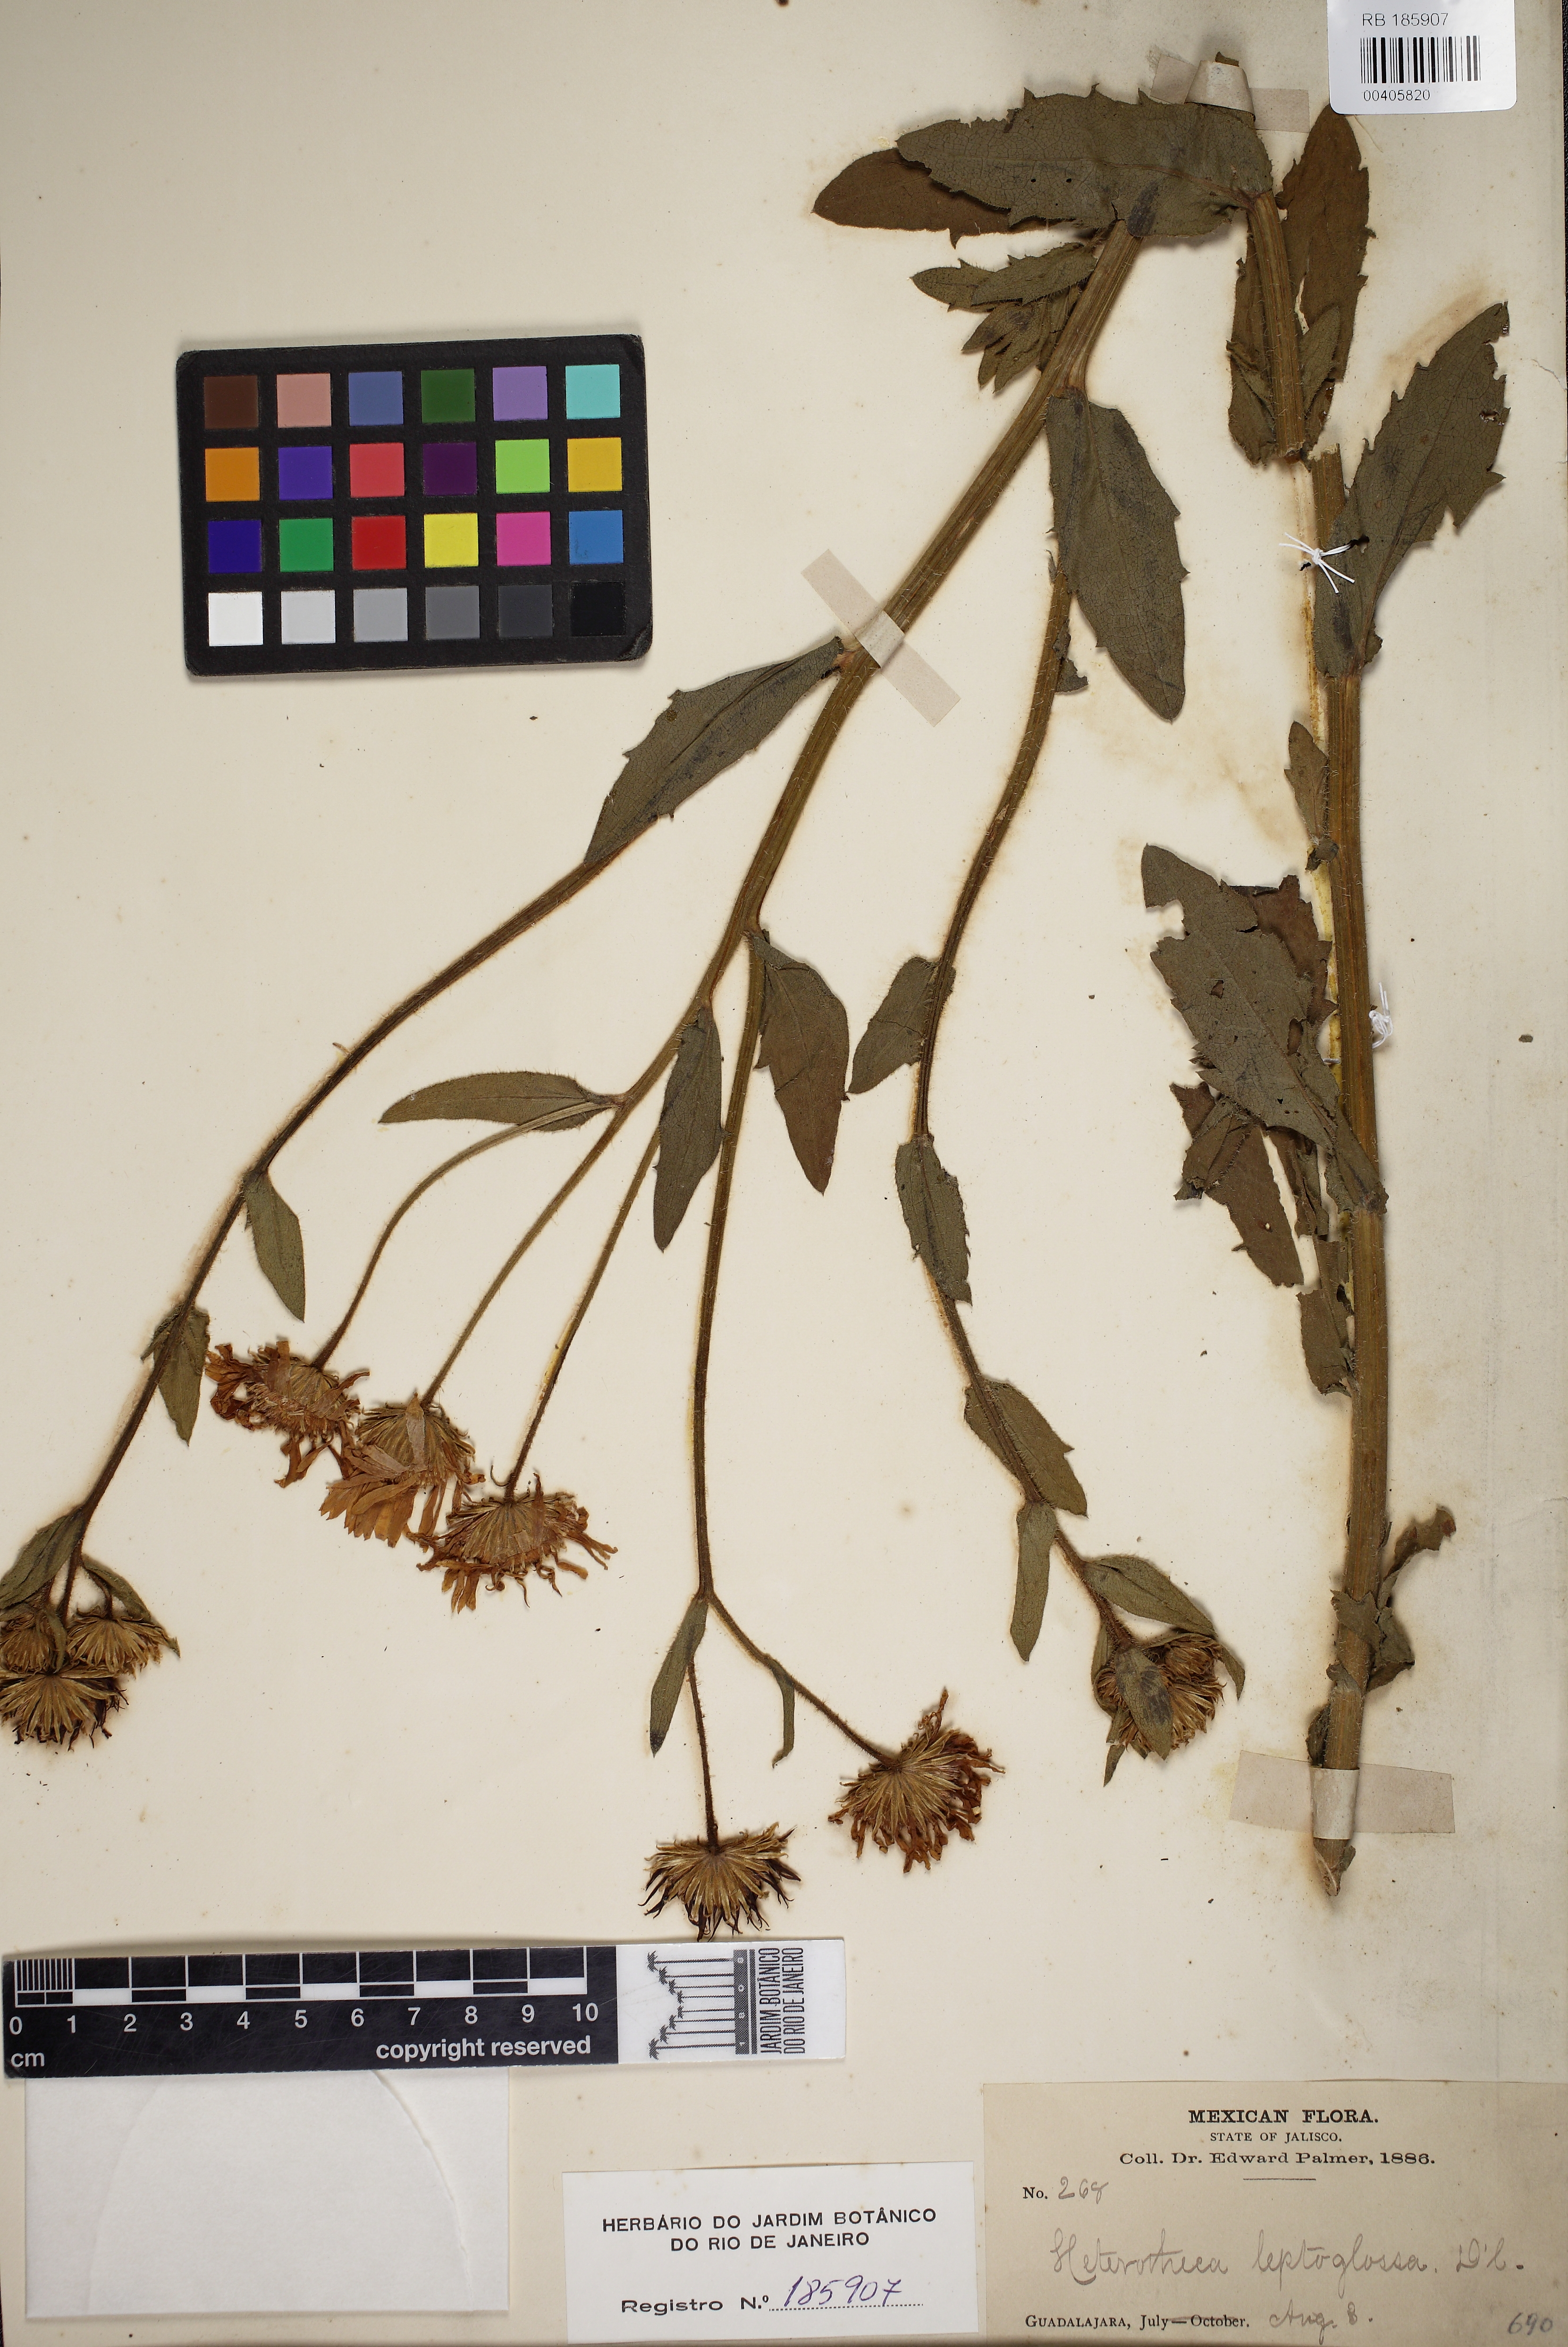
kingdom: Plantae
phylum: Tracheophyta
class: Magnoliopsida
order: Asterales
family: Asteraceae
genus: Heterotheca
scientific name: Heterotheca leptoglossa
